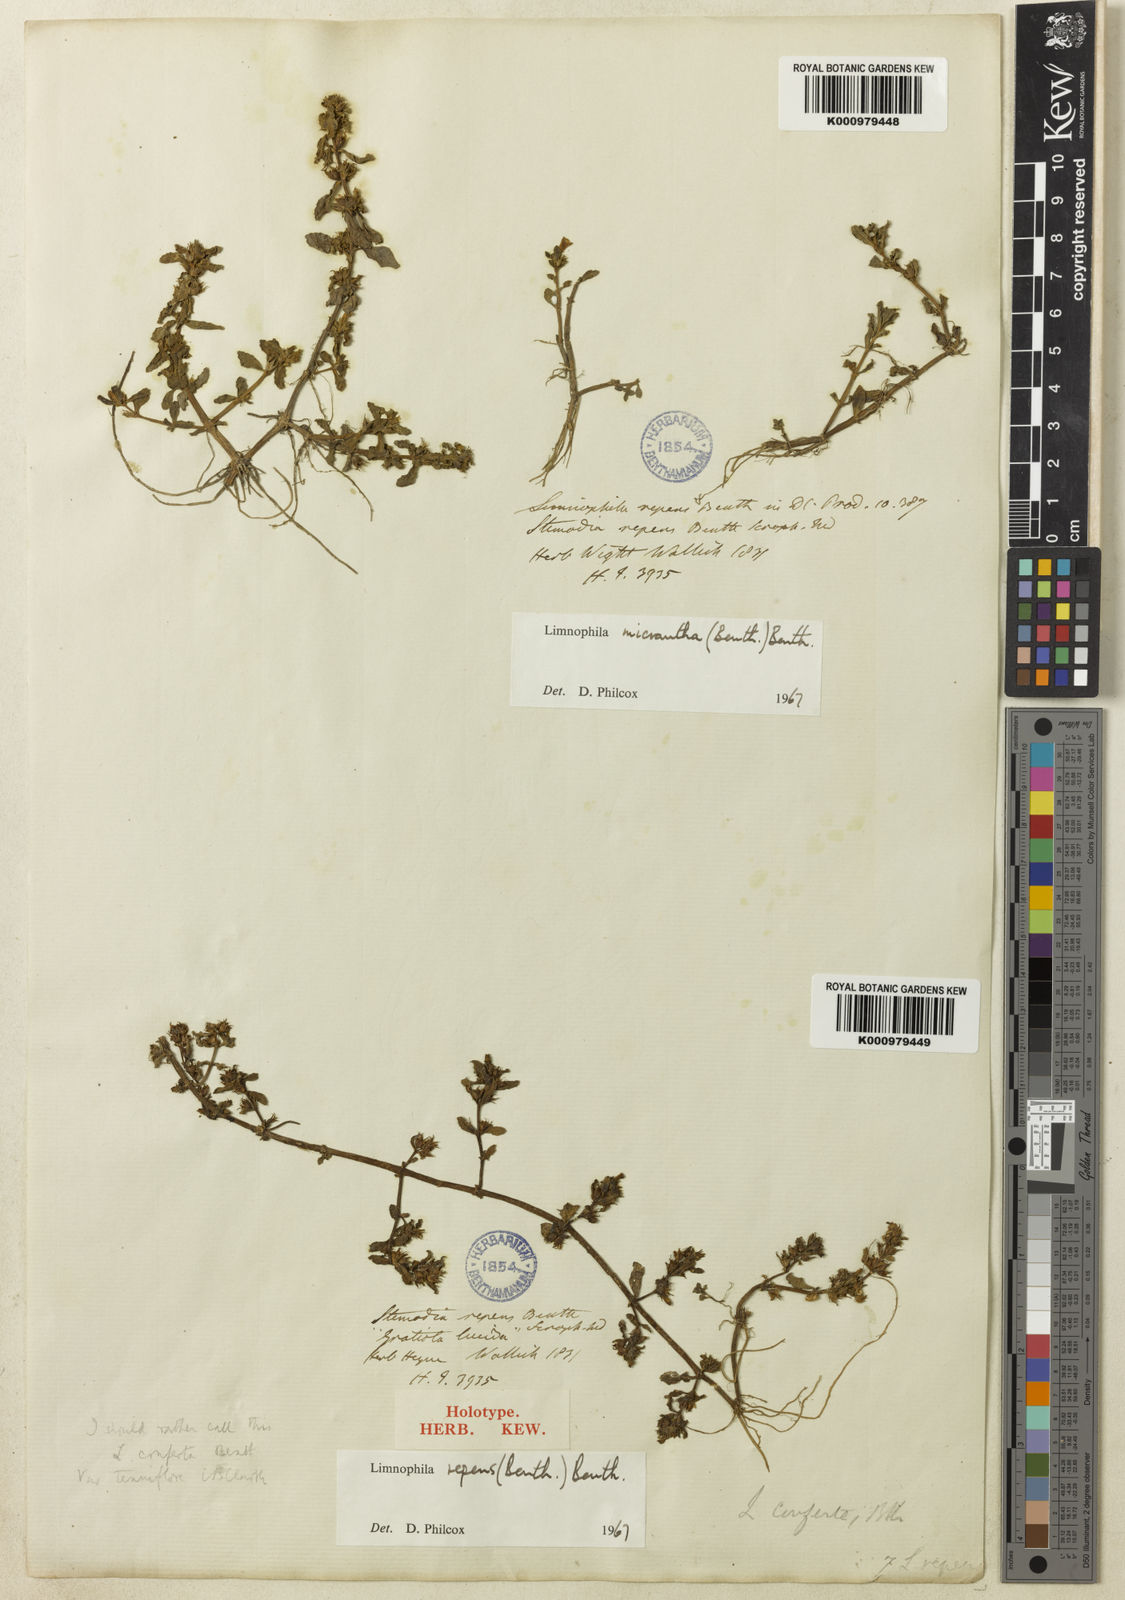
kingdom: Plantae
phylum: Tracheophyta
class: Magnoliopsida
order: Lamiales
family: Plantaginaceae
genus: Limnophila
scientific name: Limnophila repens
